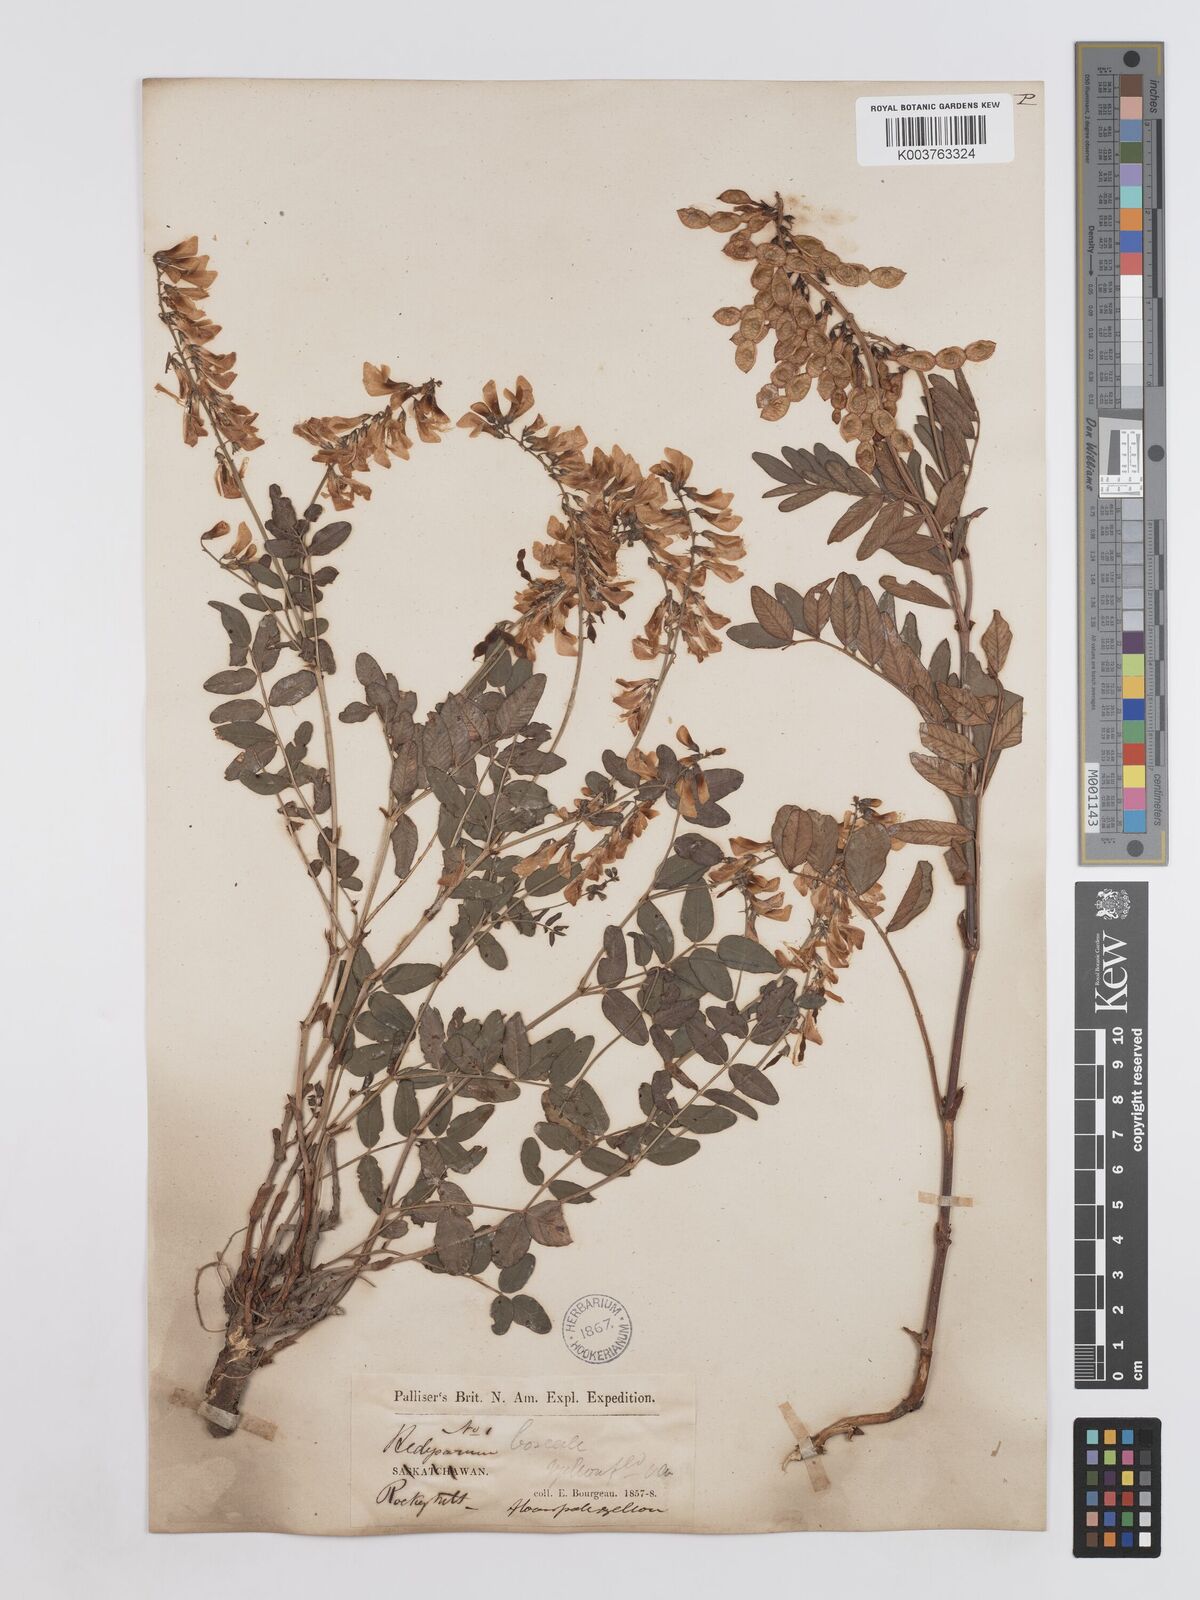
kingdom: Plantae
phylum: Tracheophyta
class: Magnoliopsida
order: Fabales
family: Fabaceae
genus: Hedysarum
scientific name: Hedysarum sulphurescens
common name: Sulphur hedysarum
